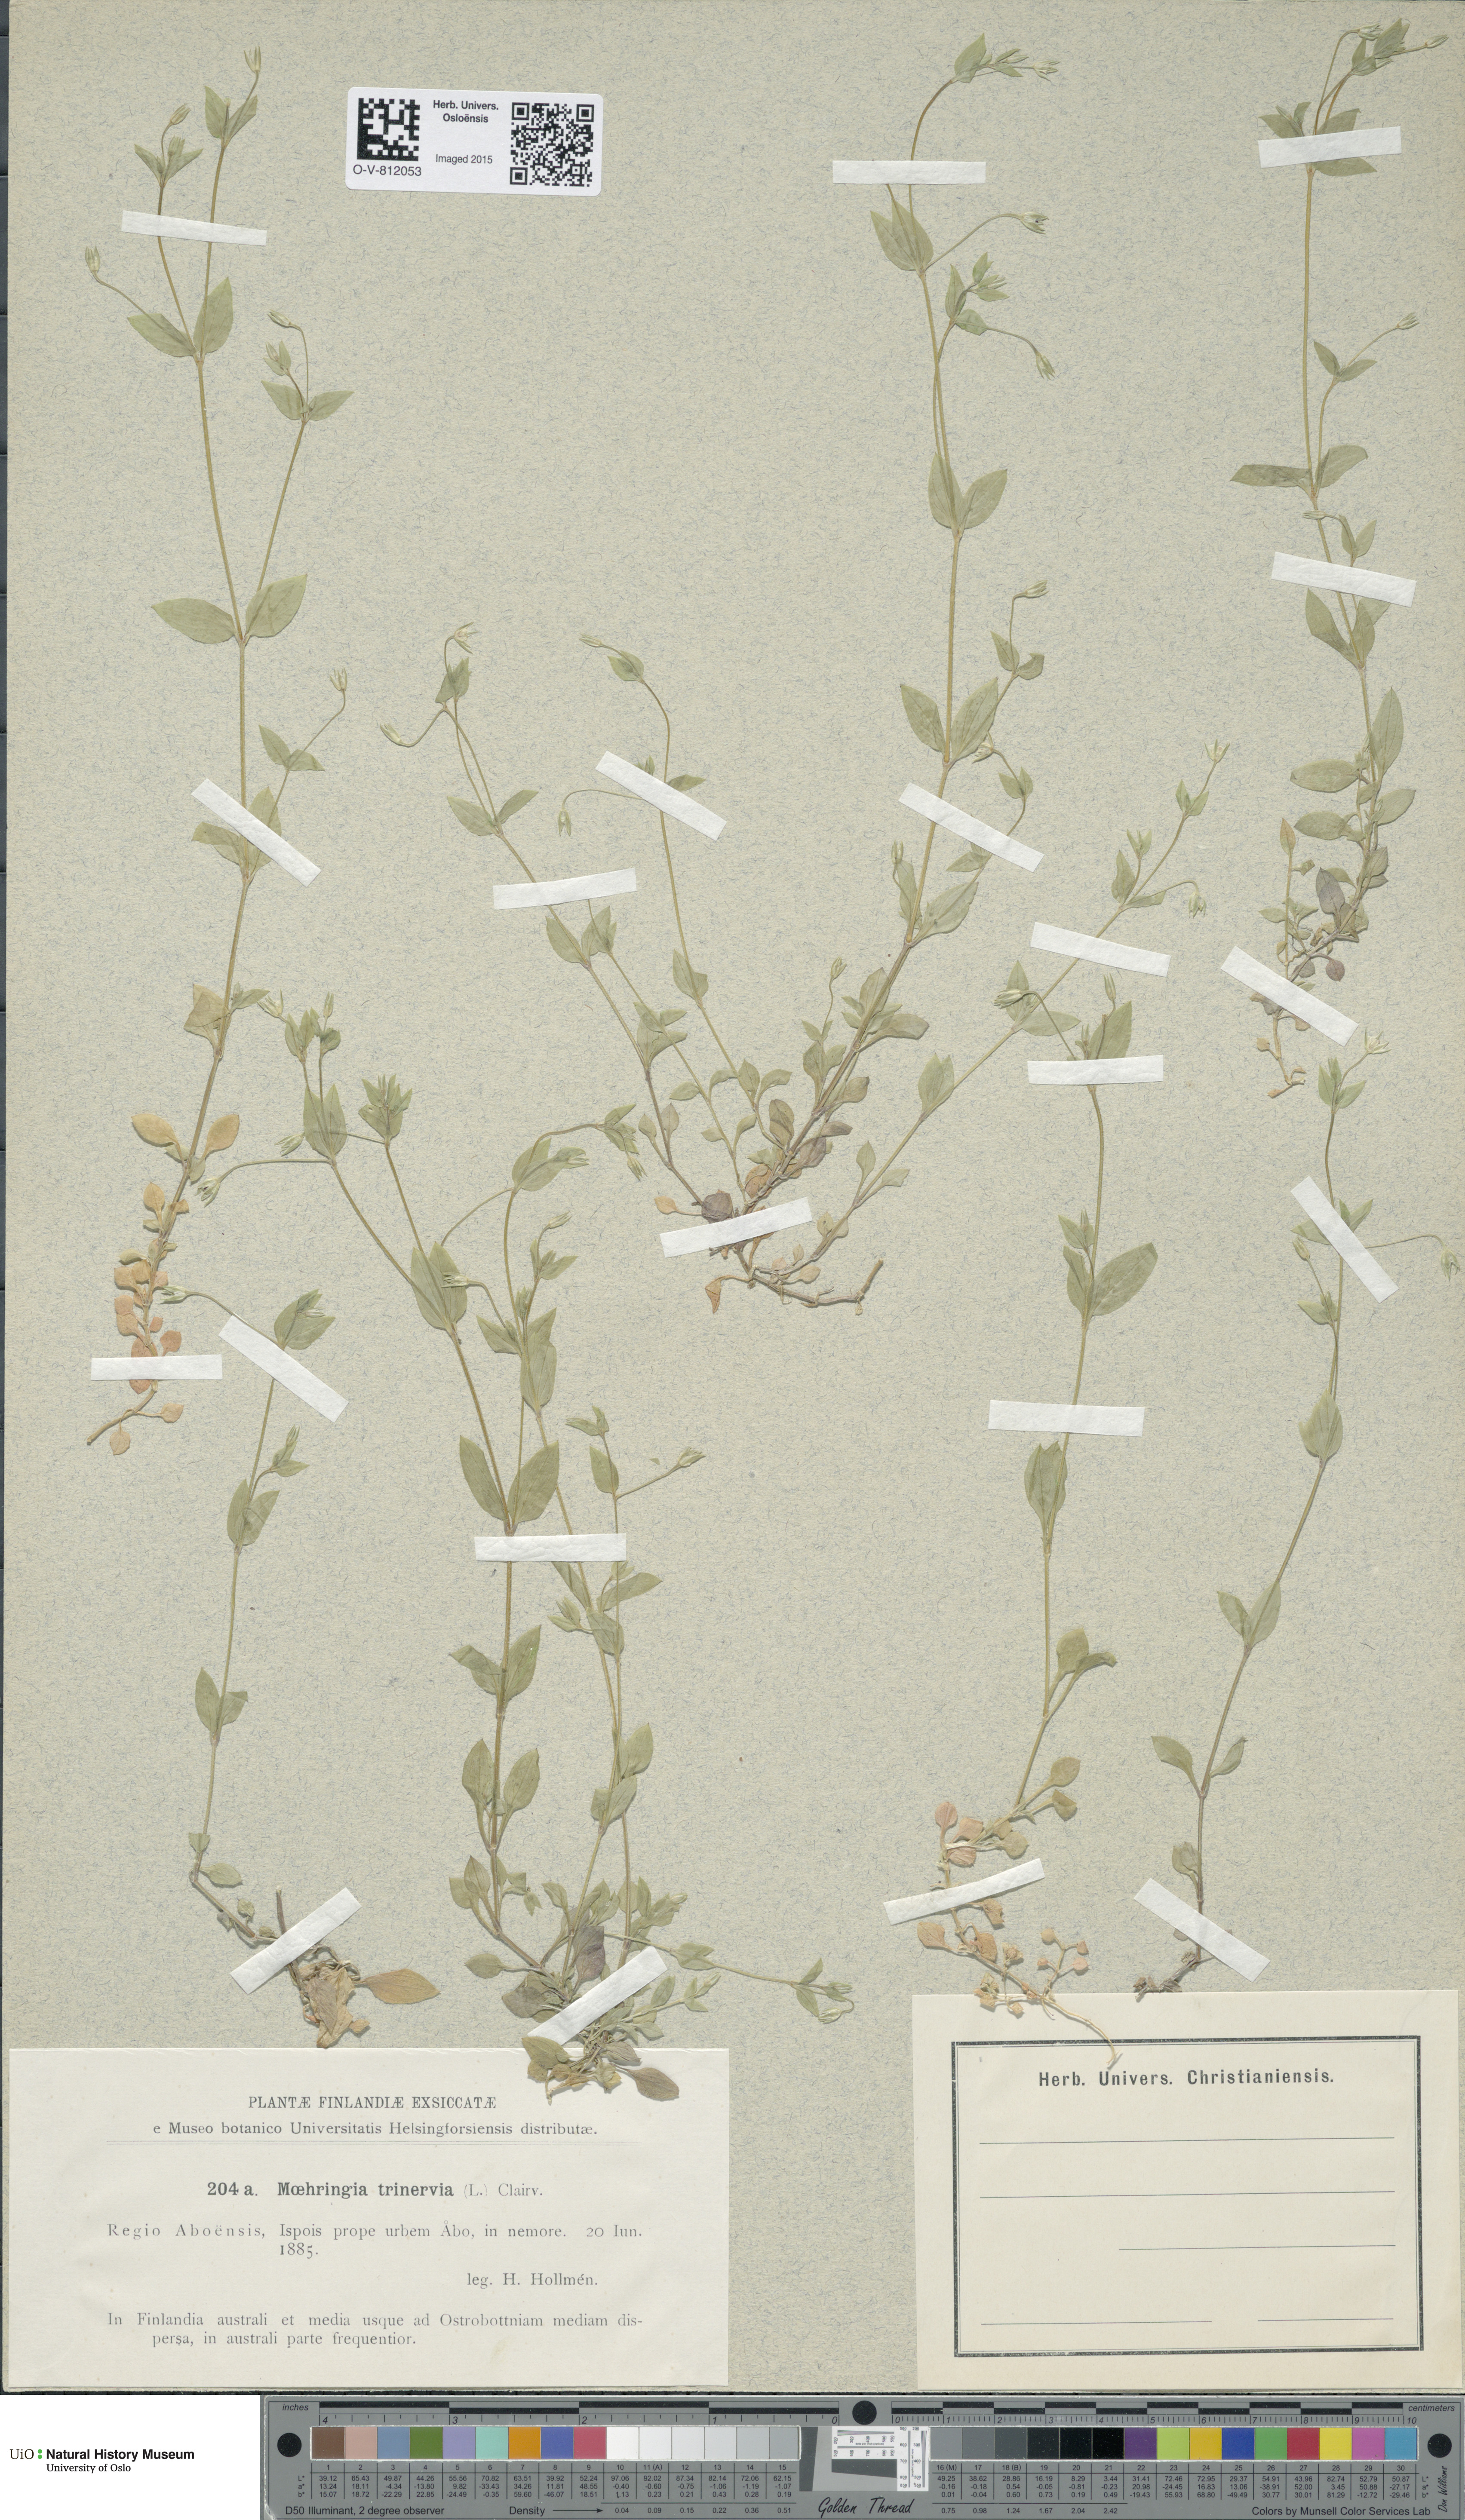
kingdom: Plantae
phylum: Tracheophyta
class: Magnoliopsida
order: Caryophyllales
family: Caryophyllaceae
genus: Moehringia
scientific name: Moehringia trinervia
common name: Three-nerved sandwort
